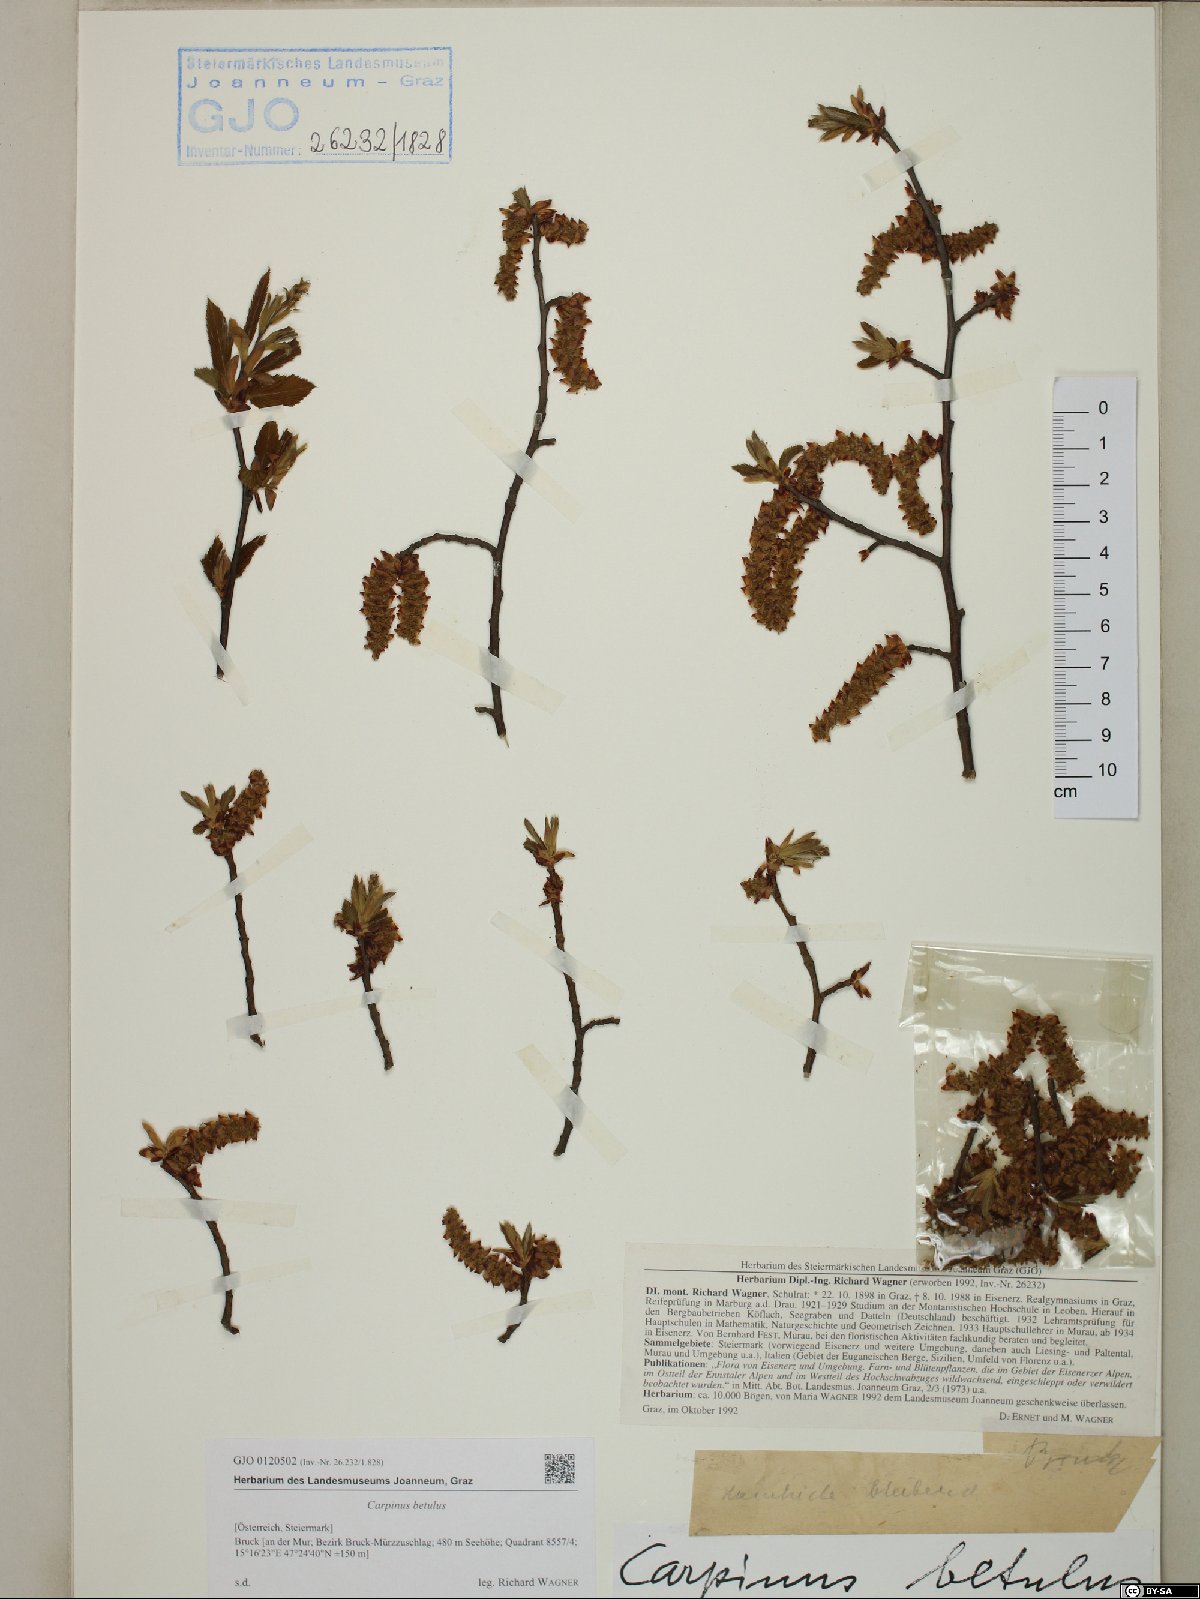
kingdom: Plantae
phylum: Tracheophyta
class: Magnoliopsida
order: Fagales
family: Betulaceae
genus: Carpinus
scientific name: Carpinus betulus
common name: Hornbeam
